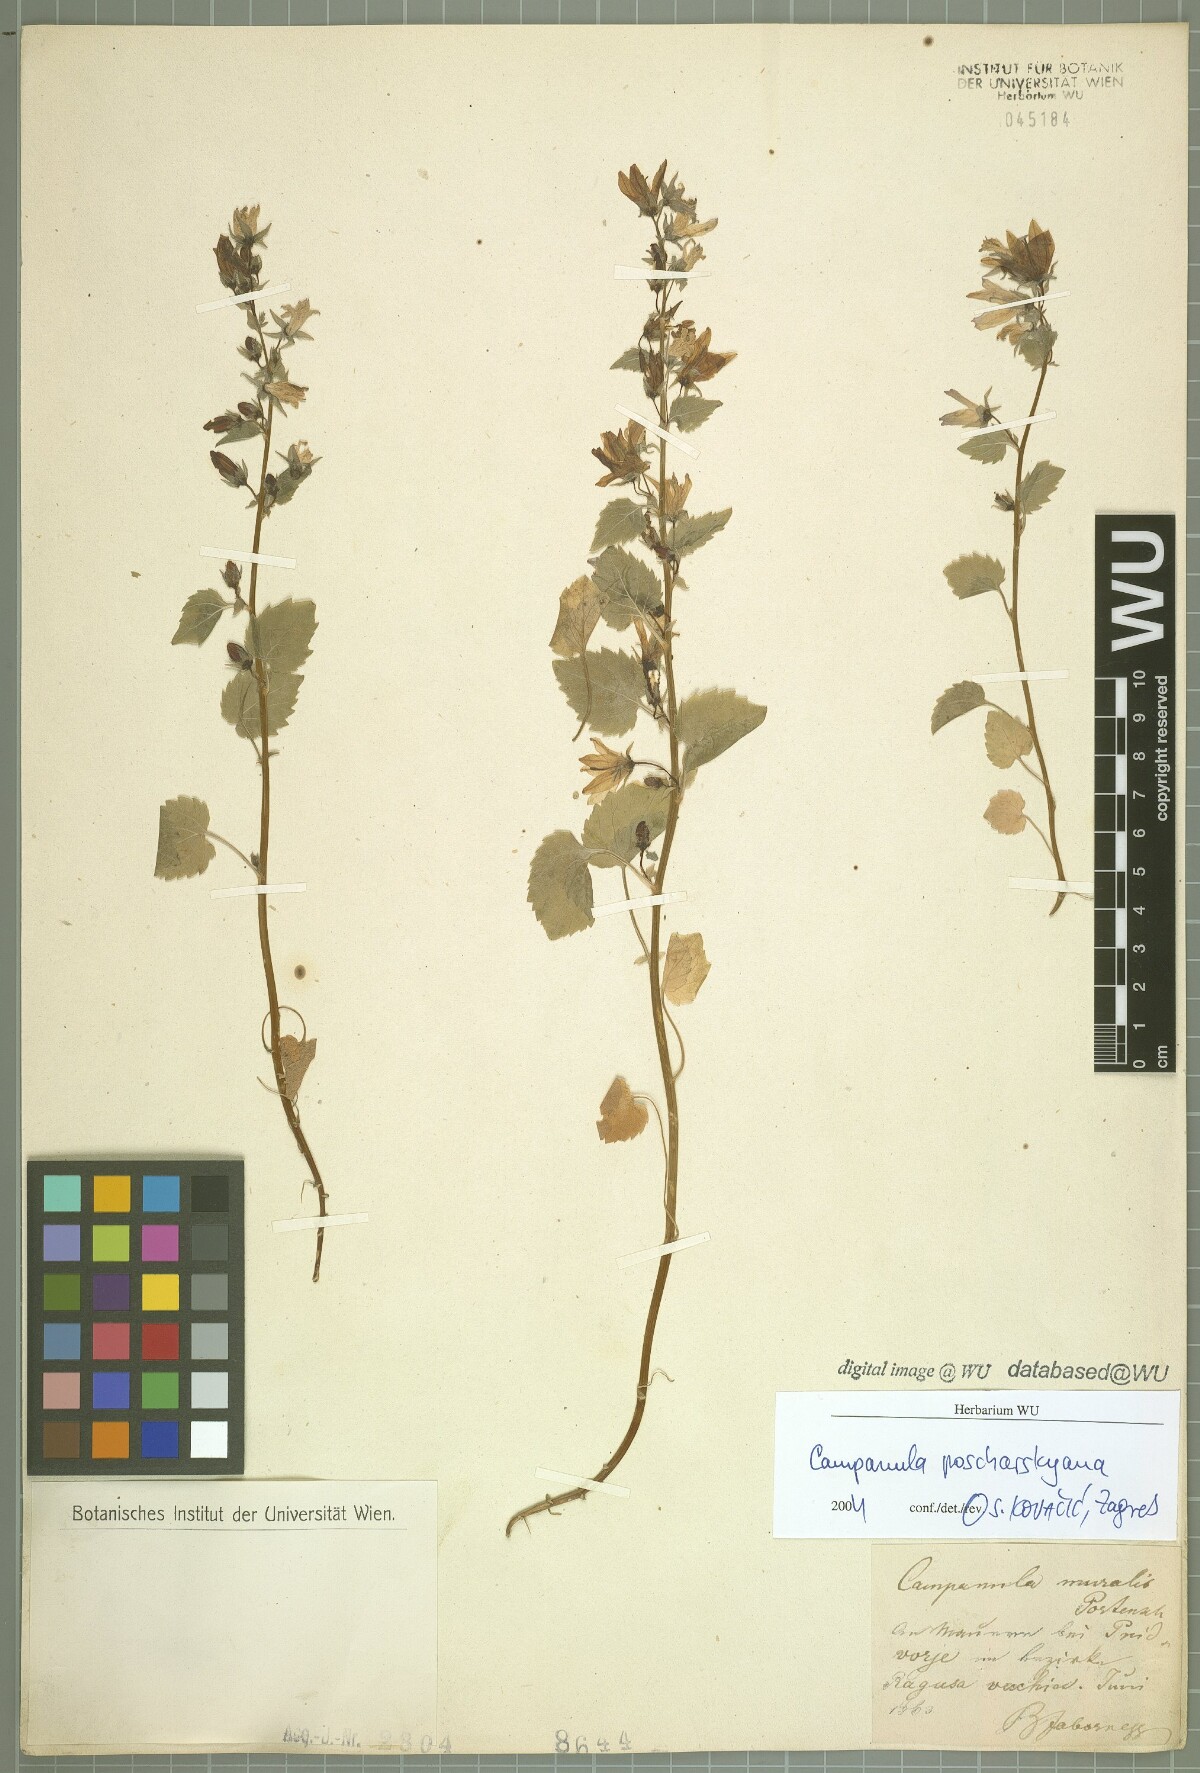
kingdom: Plantae
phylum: Tracheophyta
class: Magnoliopsida
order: Asterales
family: Campanulaceae
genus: Campanula
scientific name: Campanula poscharskyana
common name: Trailing bellflower
